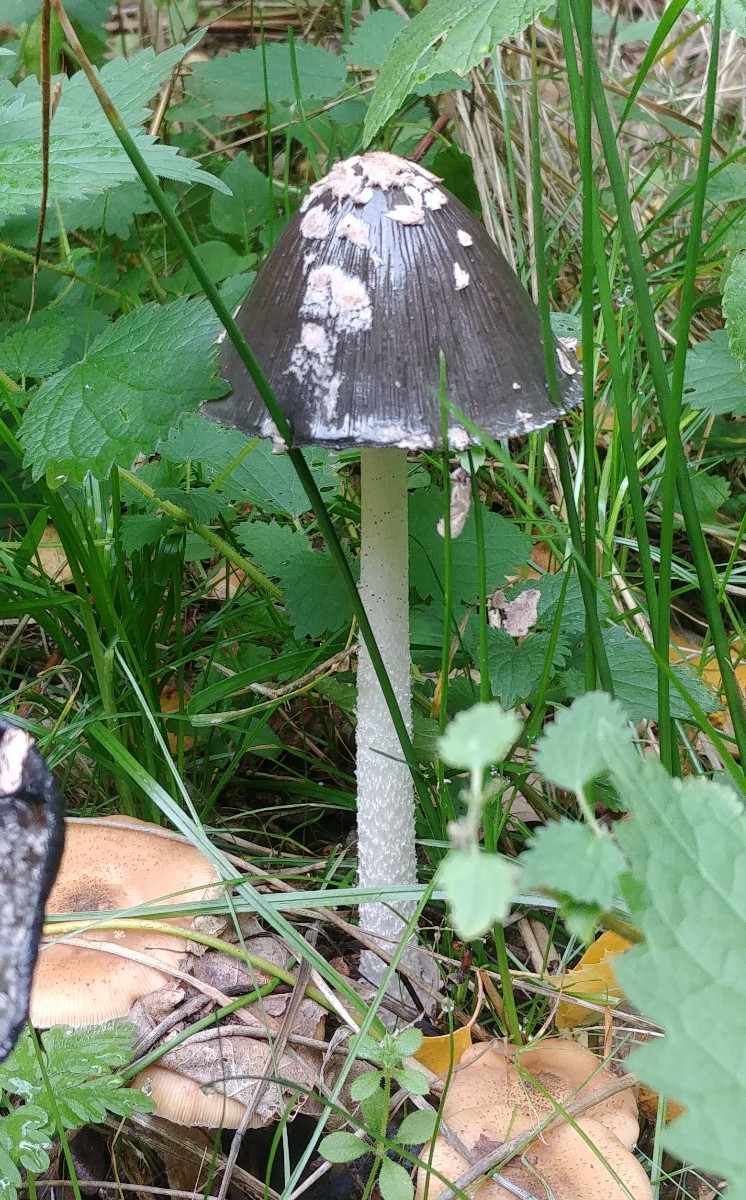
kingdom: Fungi
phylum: Basidiomycota
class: Agaricomycetes
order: Agaricales
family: Psathyrellaceae
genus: Coprinopsis
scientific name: Coprinopsis picacea
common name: skade-blækhat
